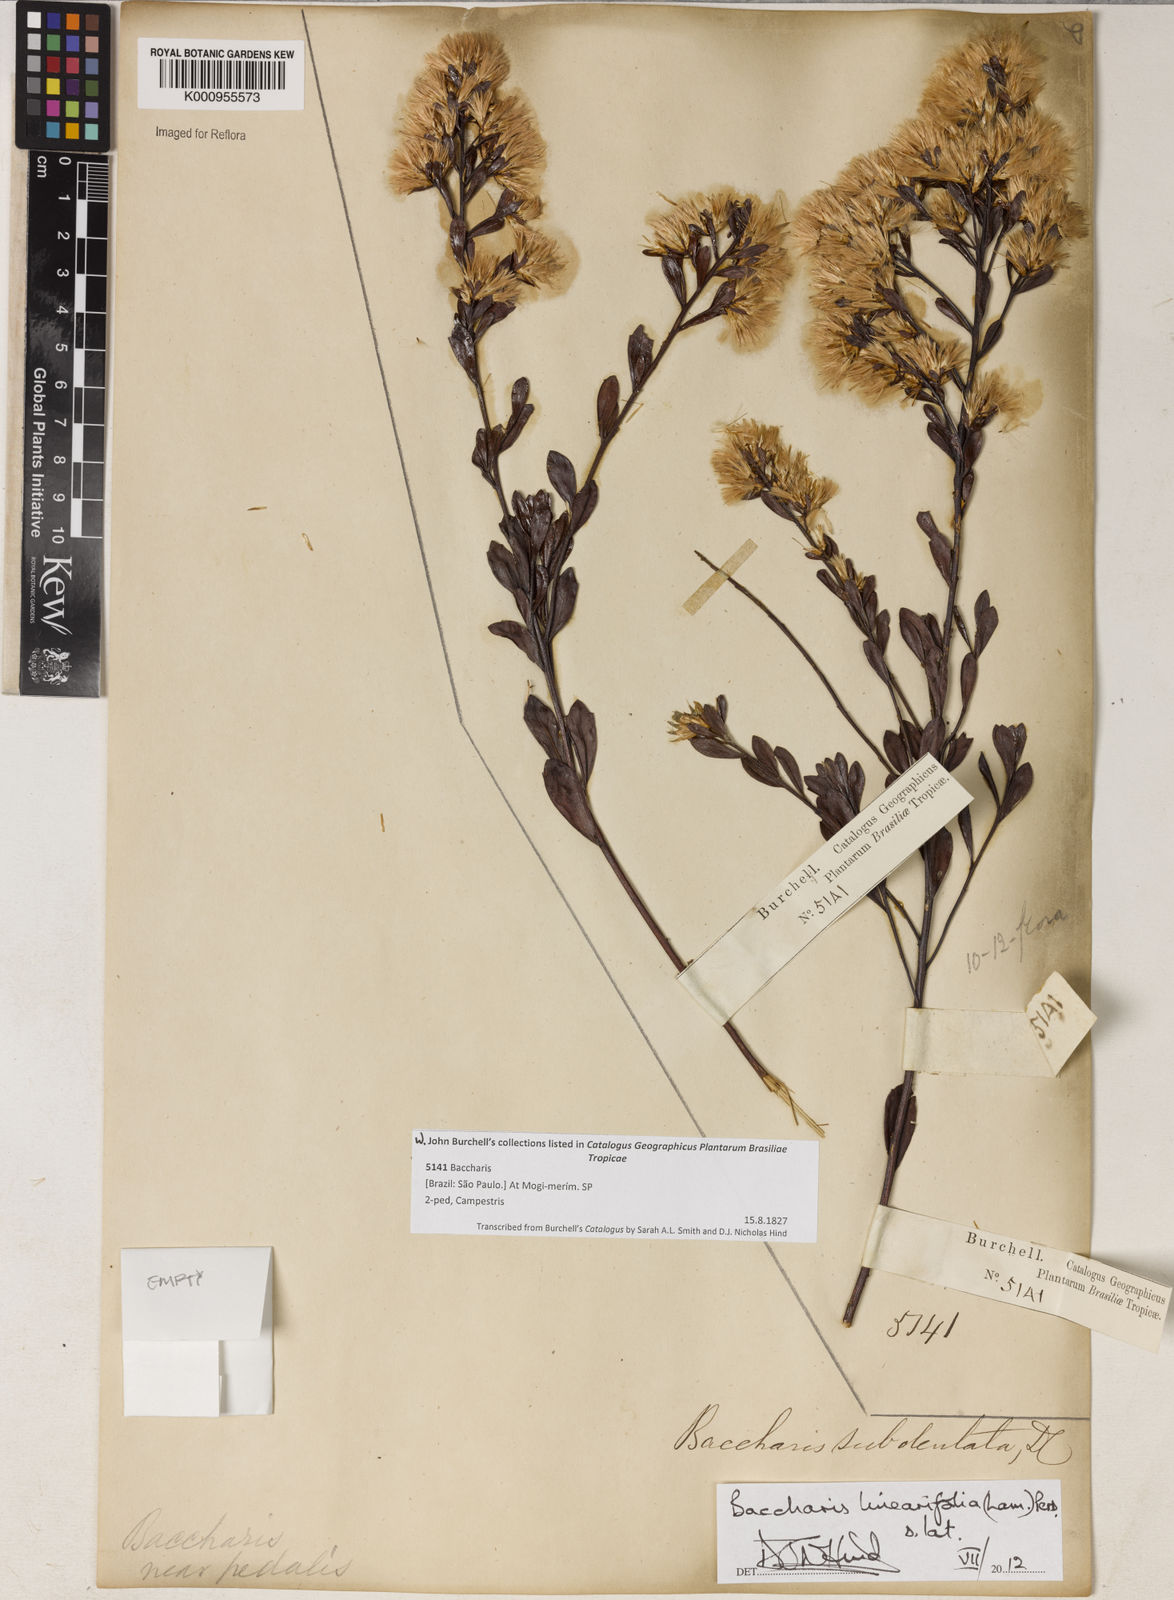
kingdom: Plantae
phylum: Tracheophyta
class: Magnoliopsida
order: Asterales
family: Asteraceae
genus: Baccharis
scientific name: Baccharis linearifolia
